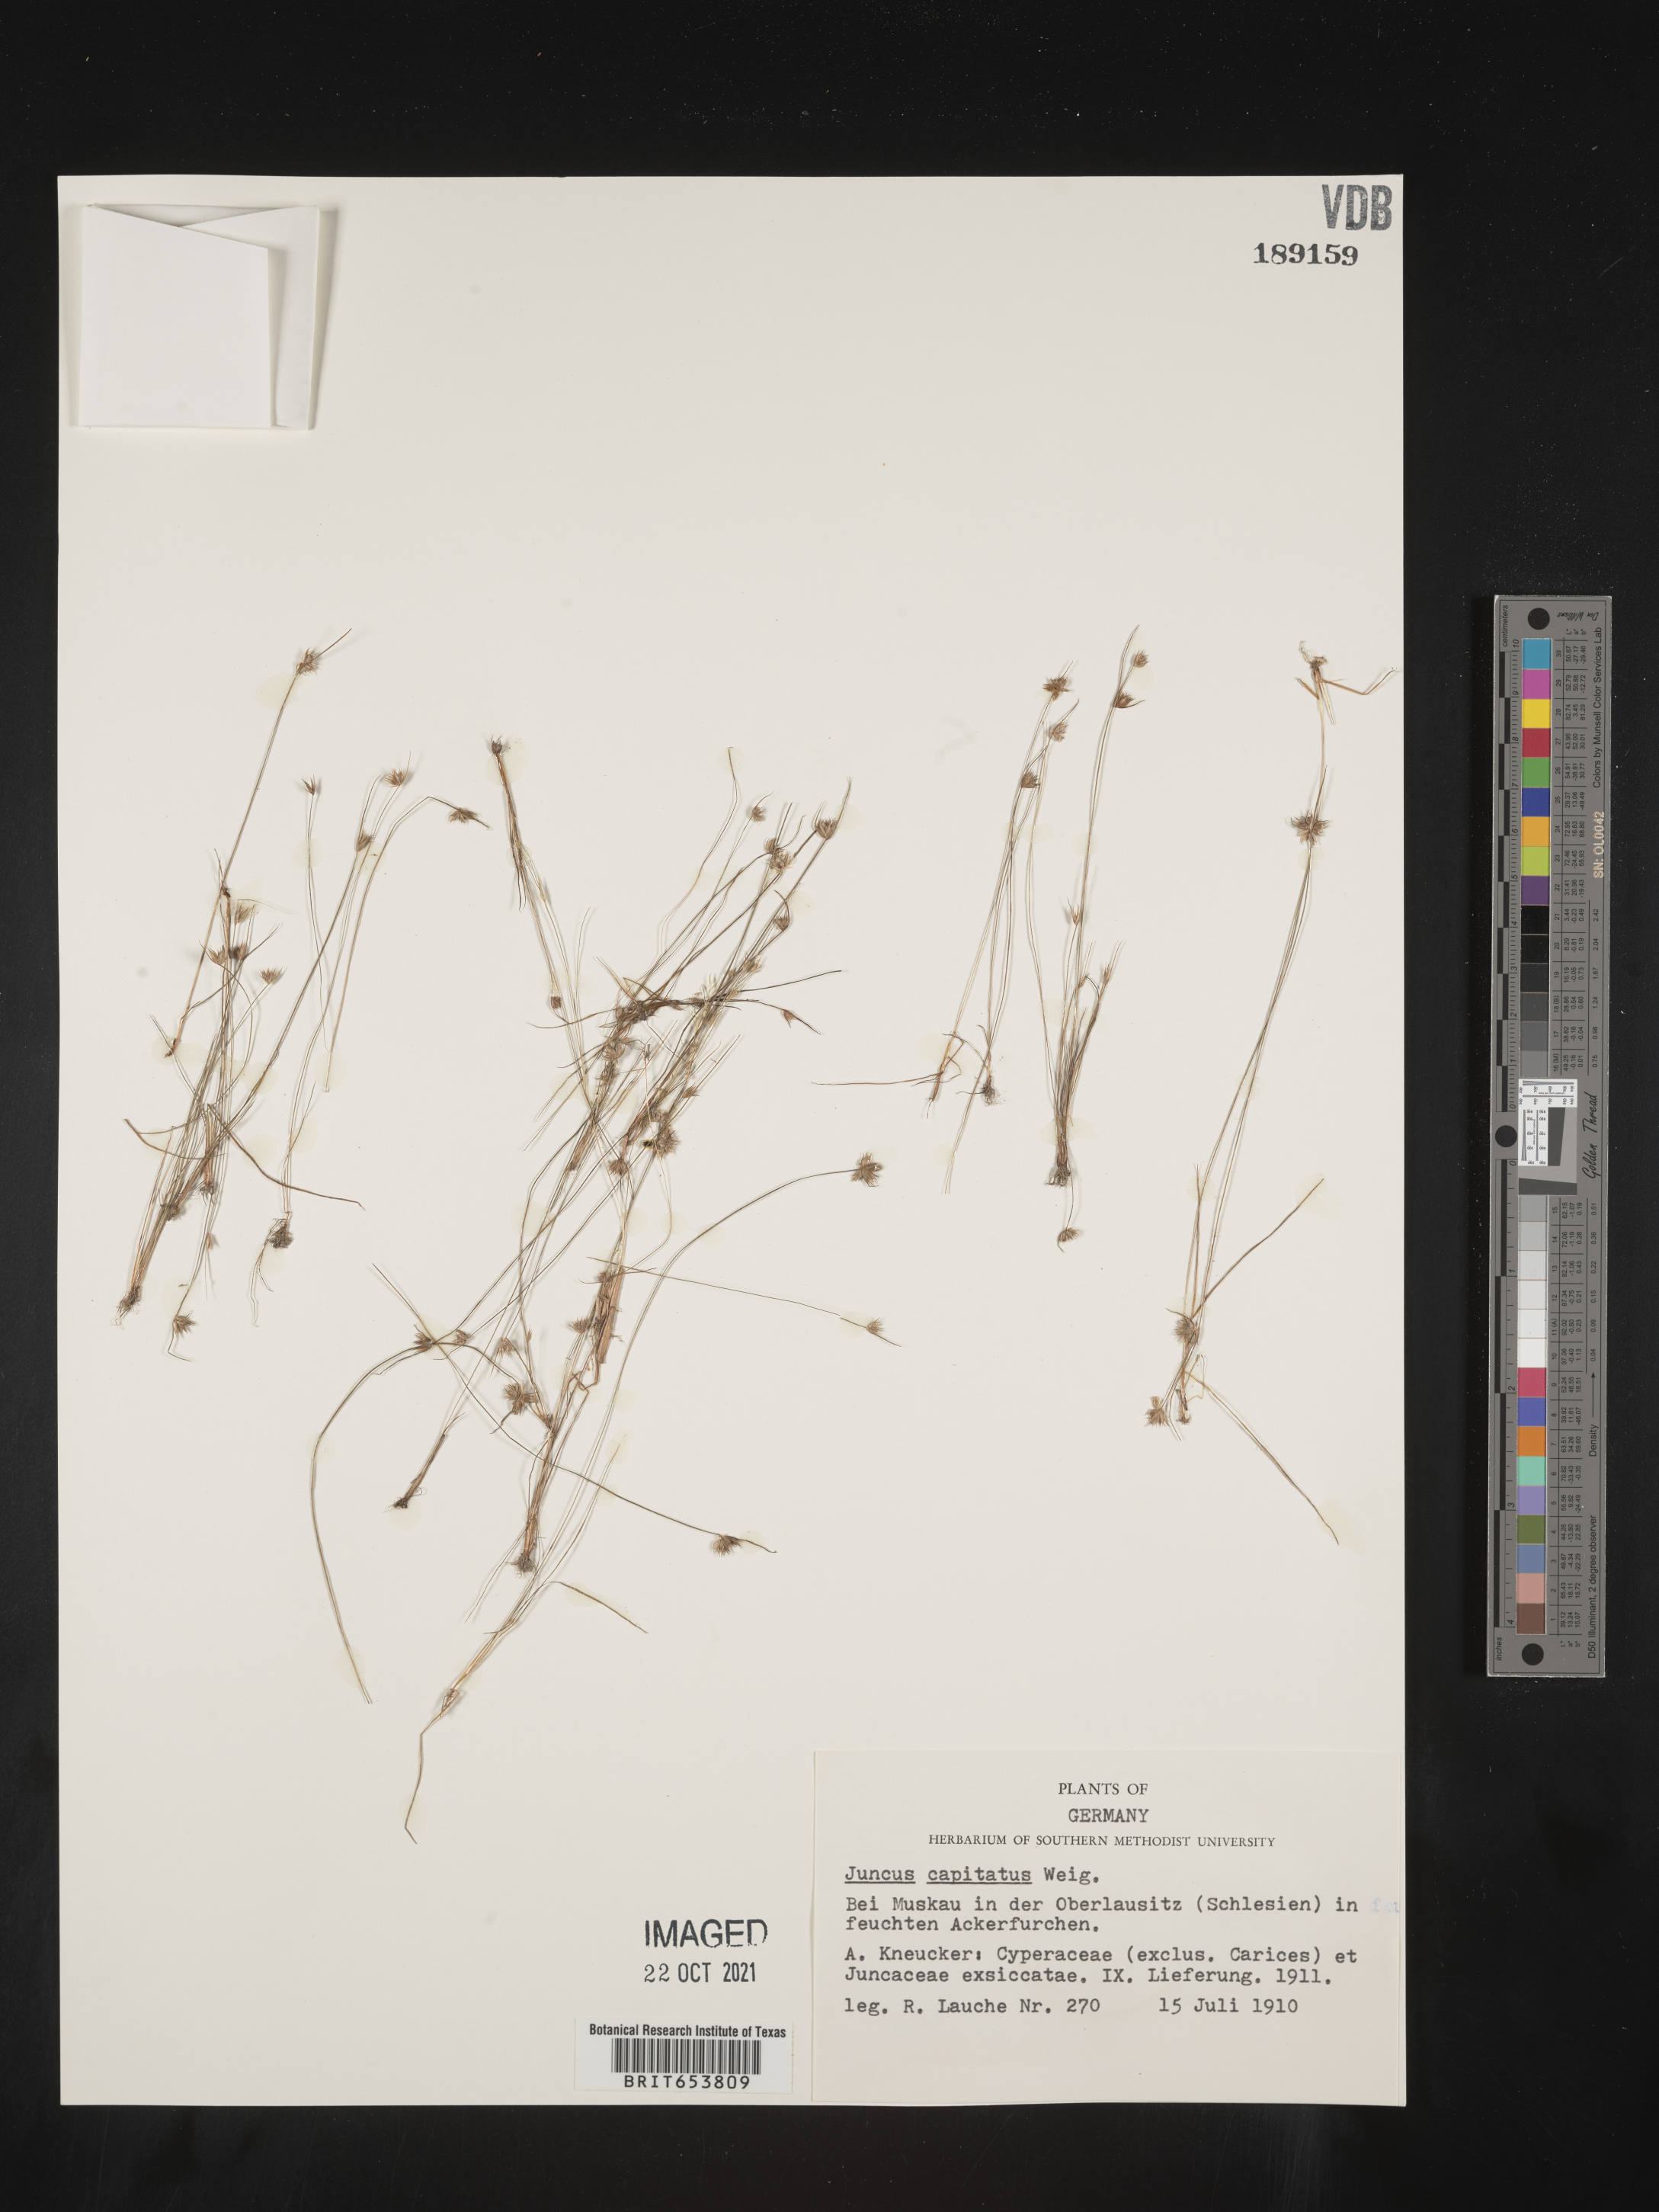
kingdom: Plantae
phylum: Tracheophyta
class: Liliopsida
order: Poales
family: Juncaceae
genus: Juncus
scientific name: Juncus
